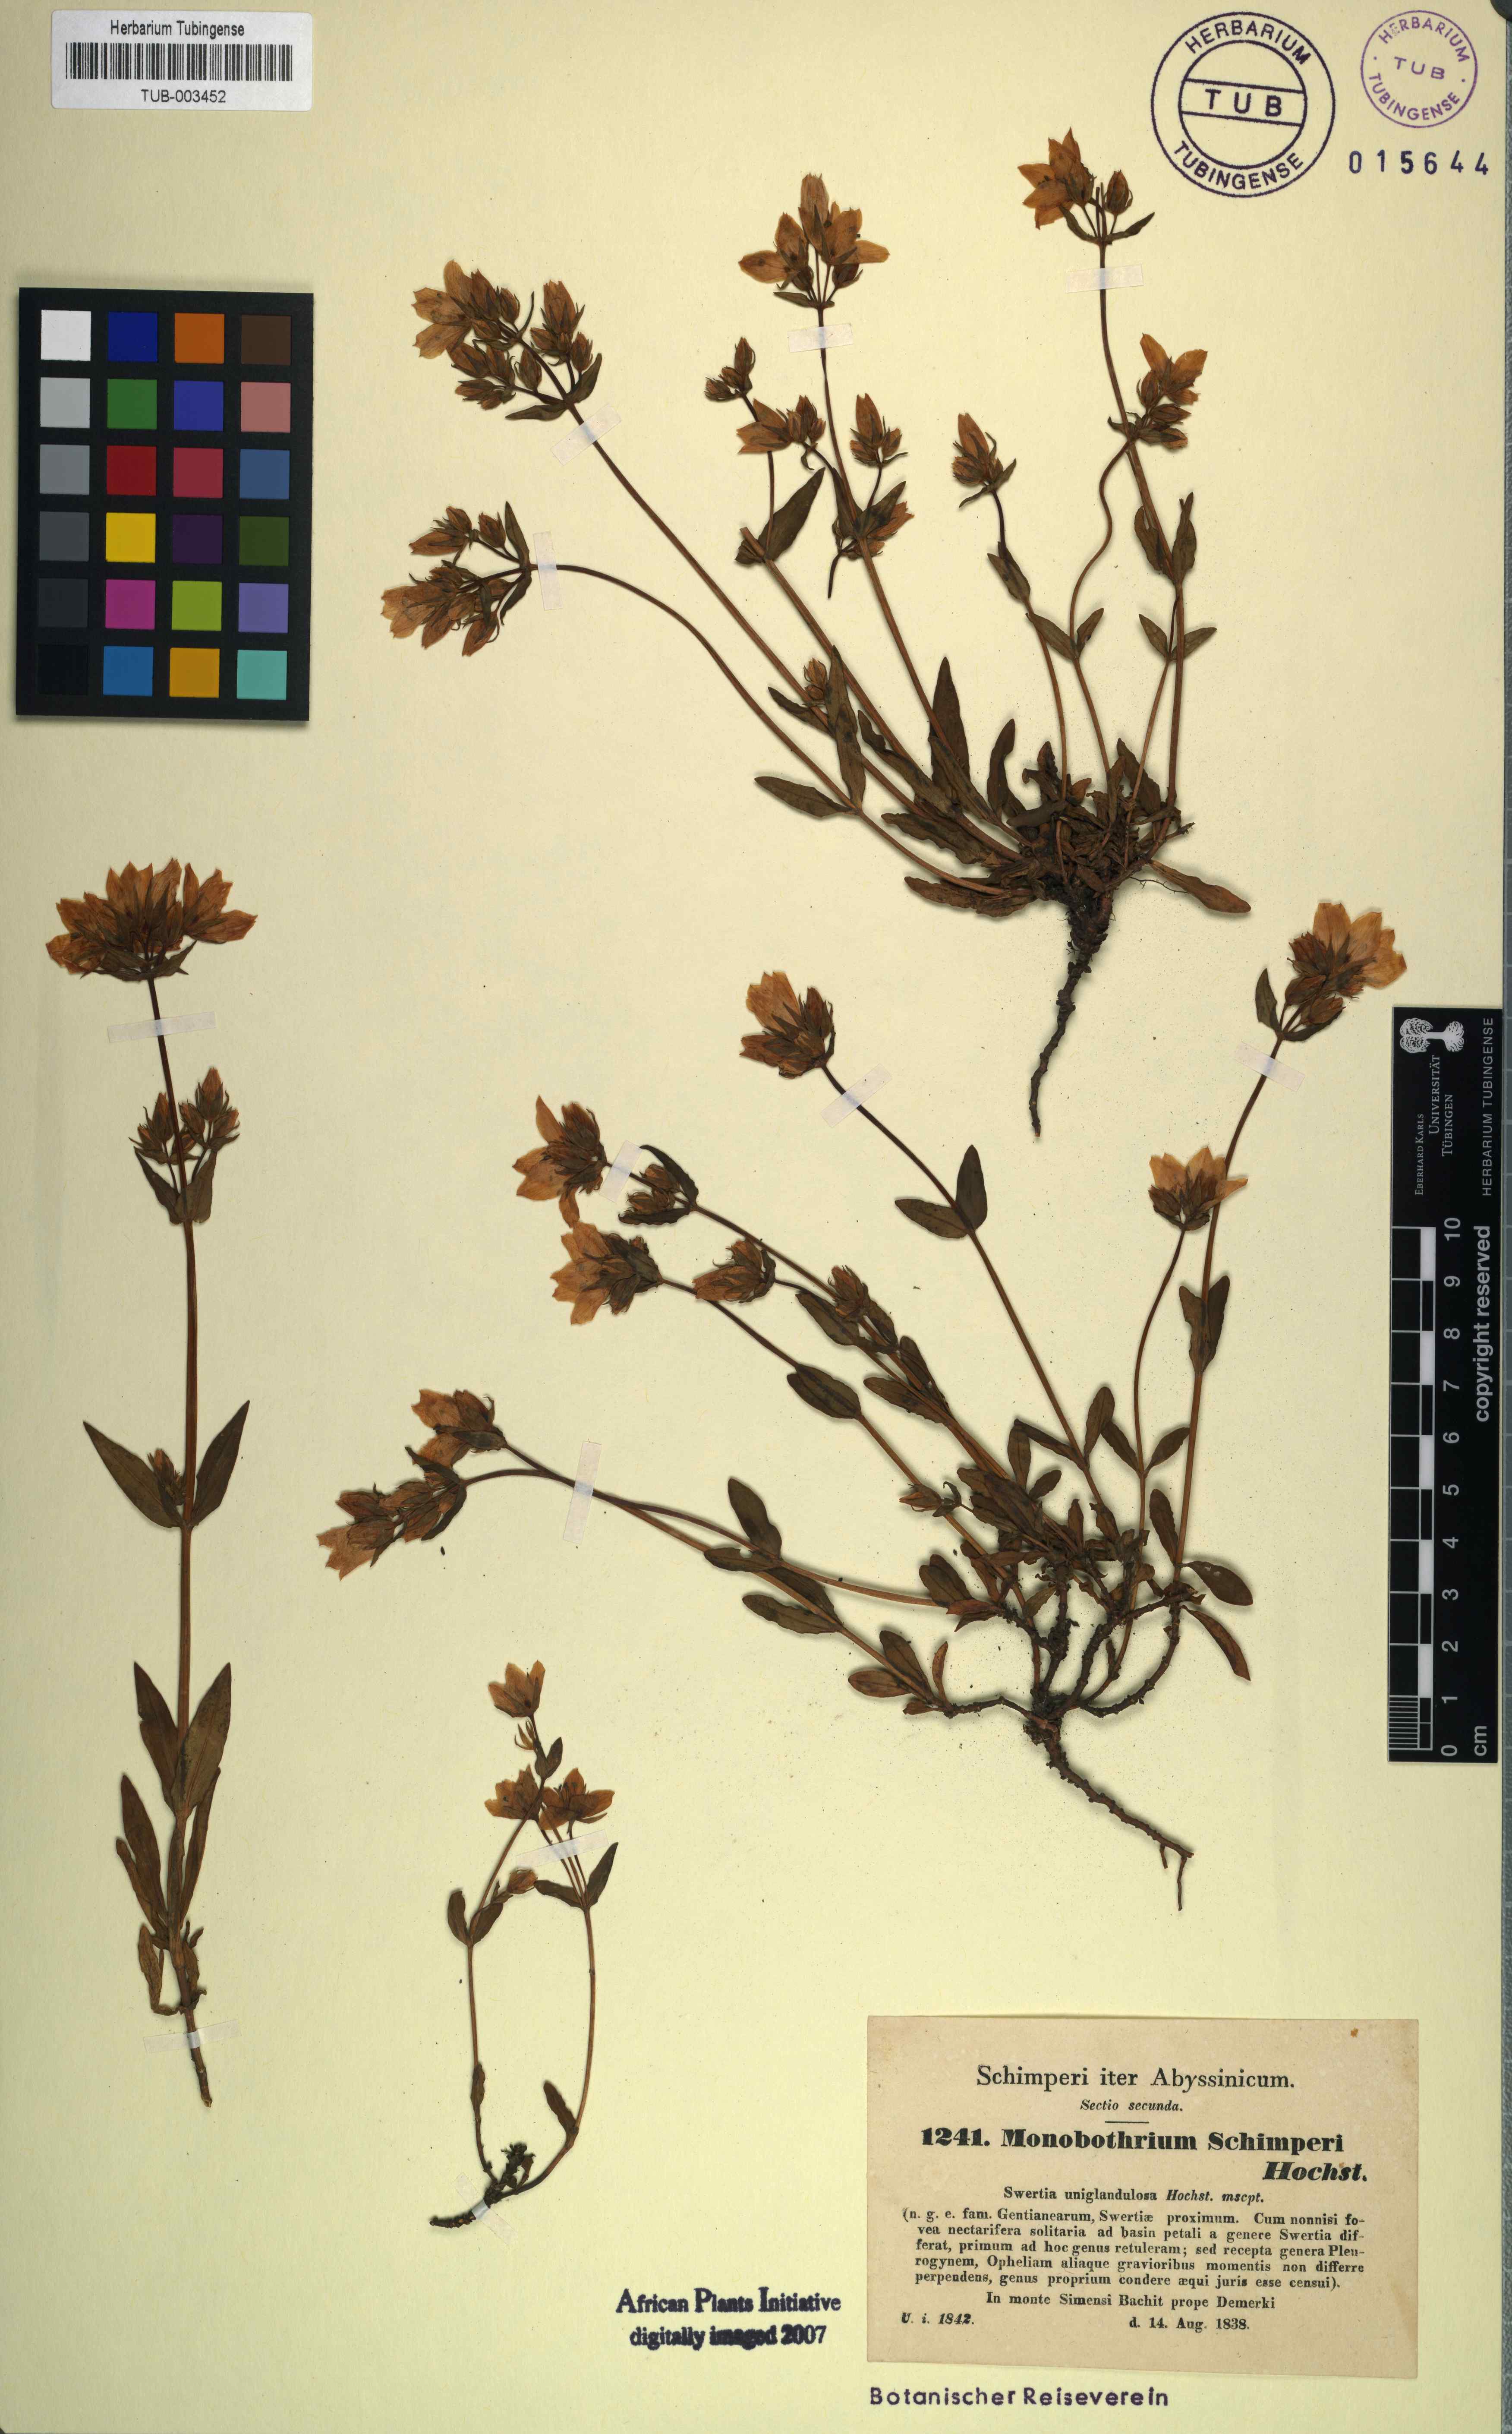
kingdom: Plantae
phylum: Tracheophyta
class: Magnoliopsida
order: Gentianales
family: Gentianaceae
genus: Swertia
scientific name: Swertia schimperi
